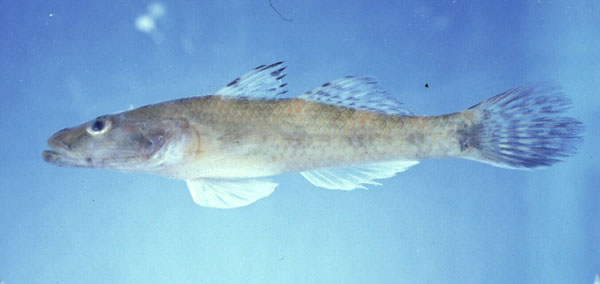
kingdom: Animalia
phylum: Chordata
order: Perciformes
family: Gobiidae
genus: Glossogobius
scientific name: Glossogobius callidus
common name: River goby
